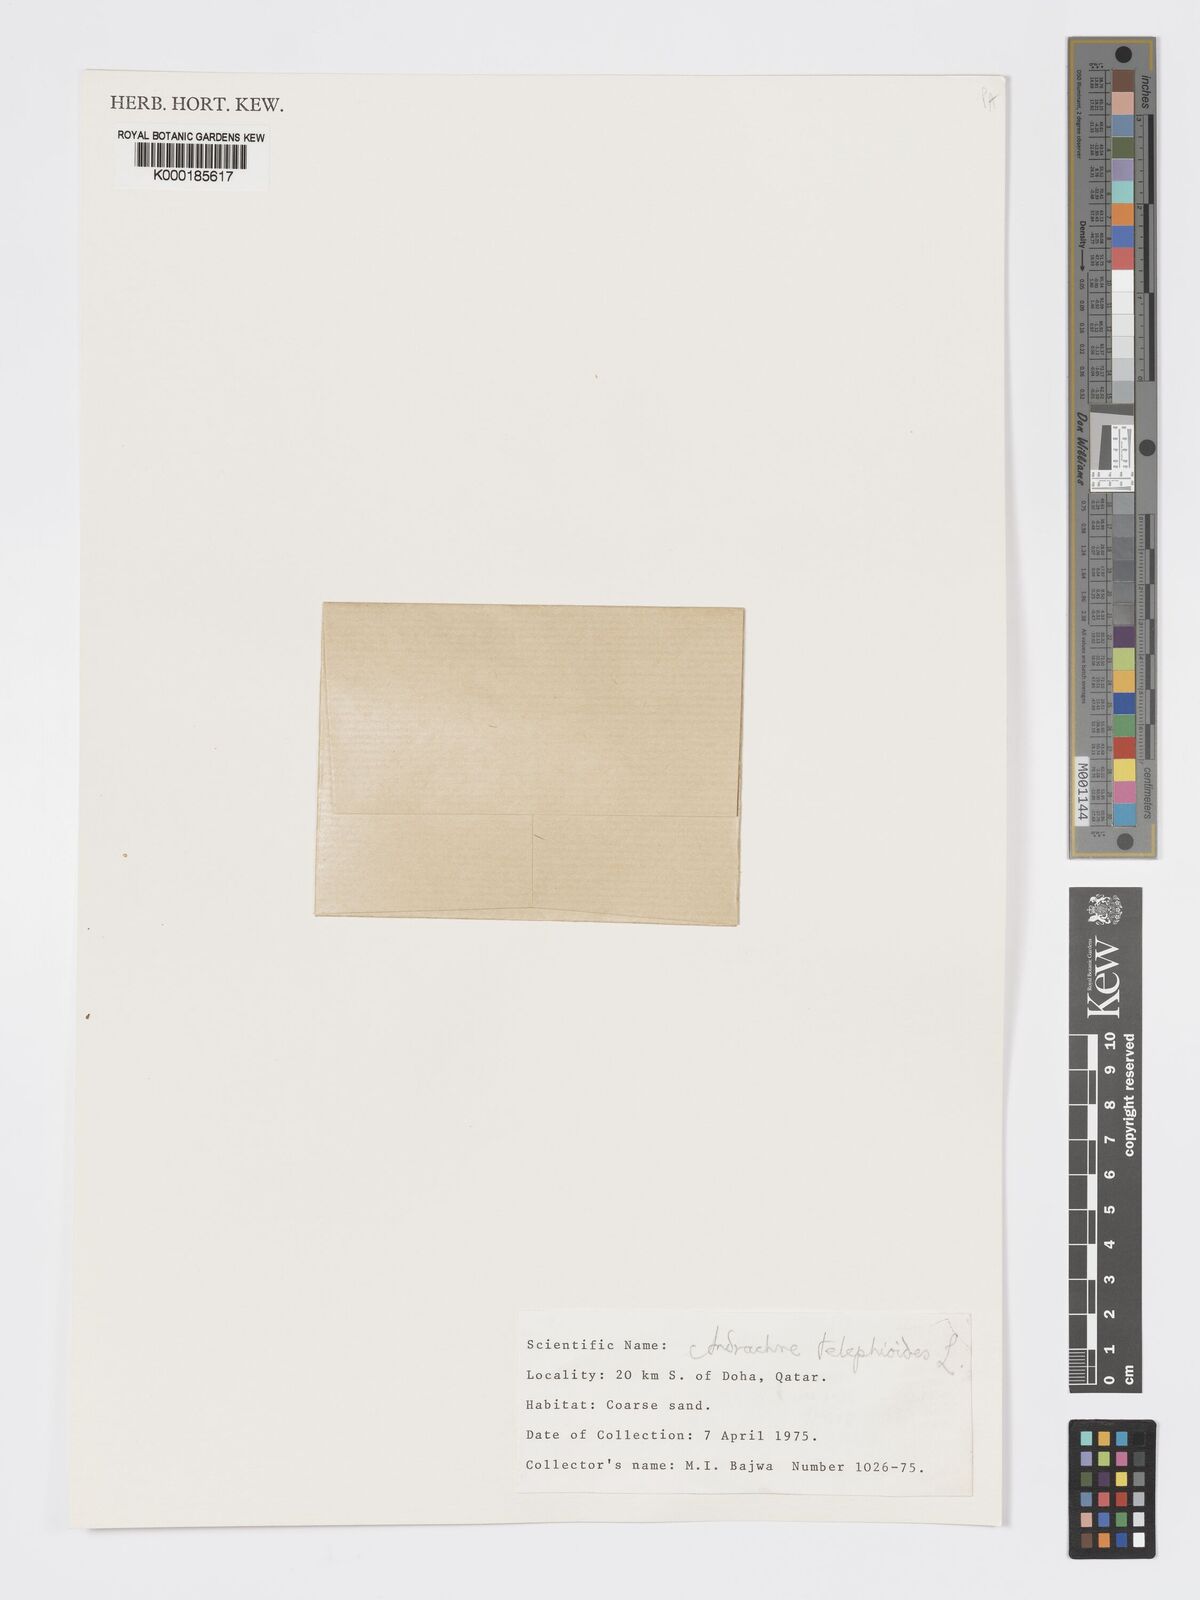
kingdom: Plantae
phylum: Tracheophyta
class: Magnoliopsida
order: Malpighiales
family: Phyllanthaceae
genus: Andrachne
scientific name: Andrachne telephioides
